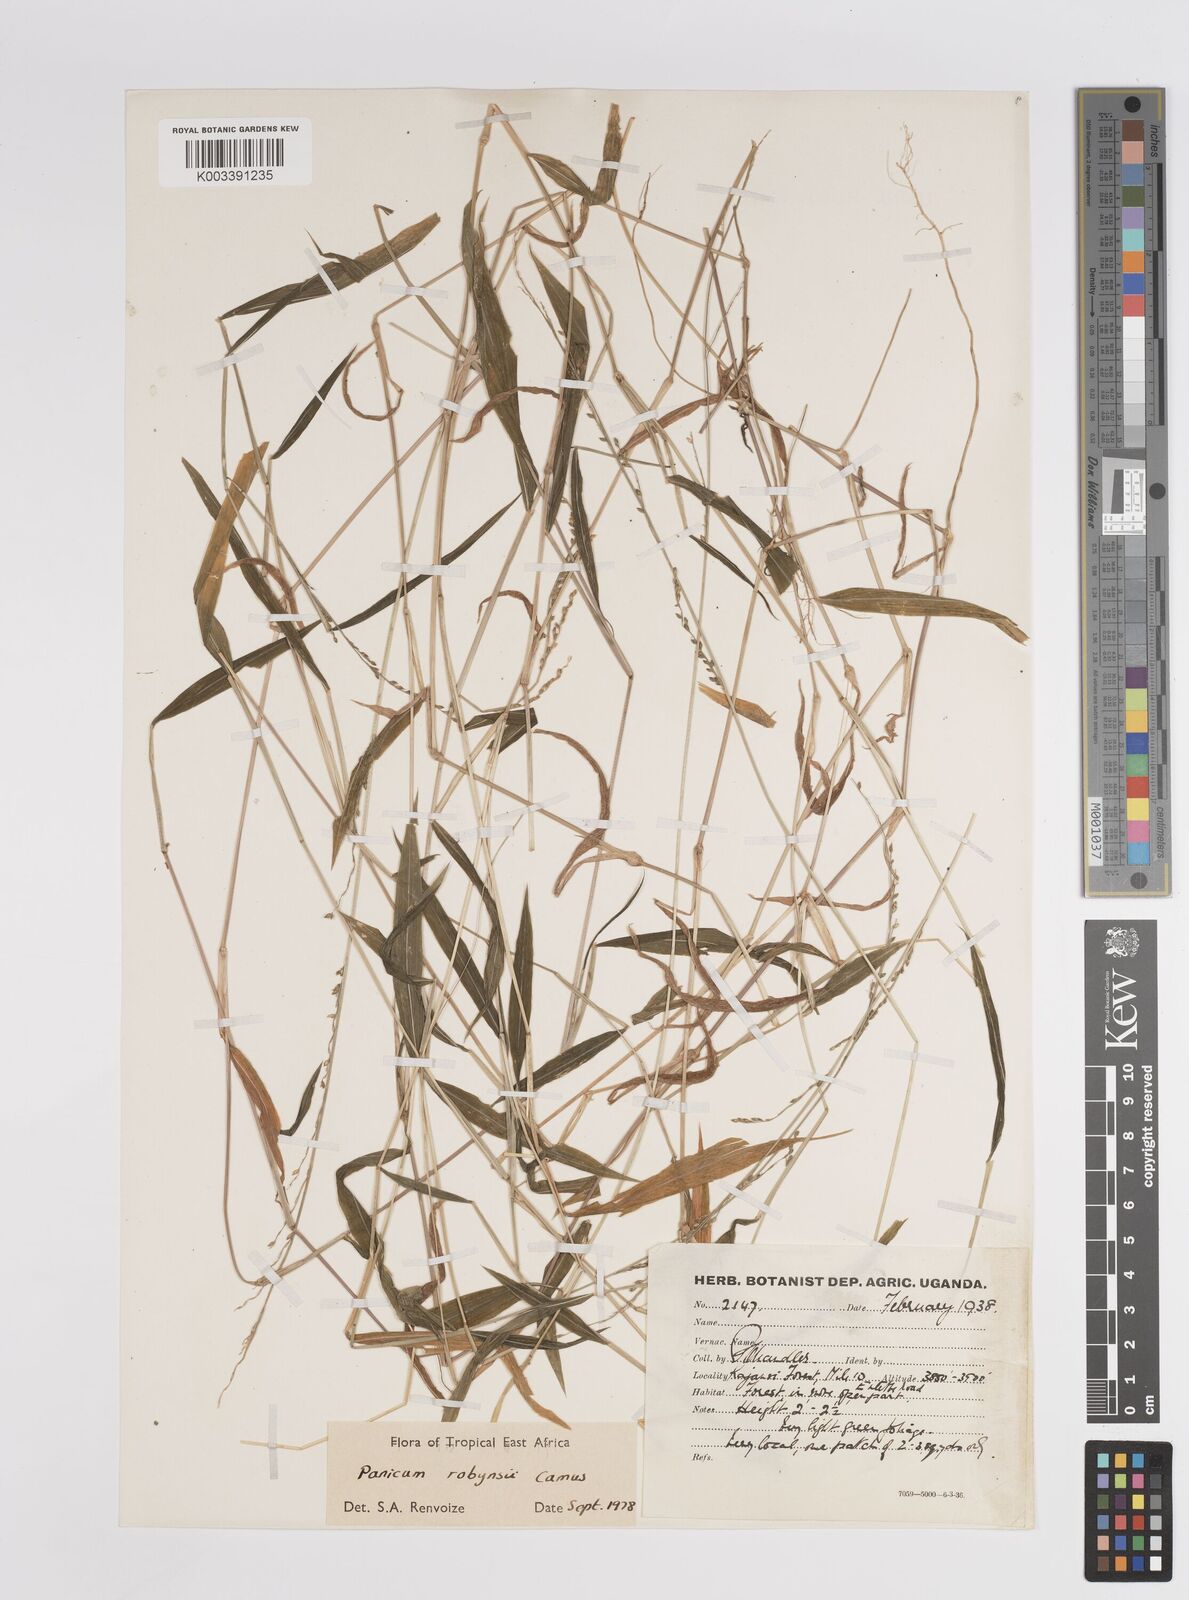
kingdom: Plantae
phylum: Tracheophyta
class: Liliopsida
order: Poales
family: Poaceae
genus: Panicum
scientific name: Panicum robynsii
